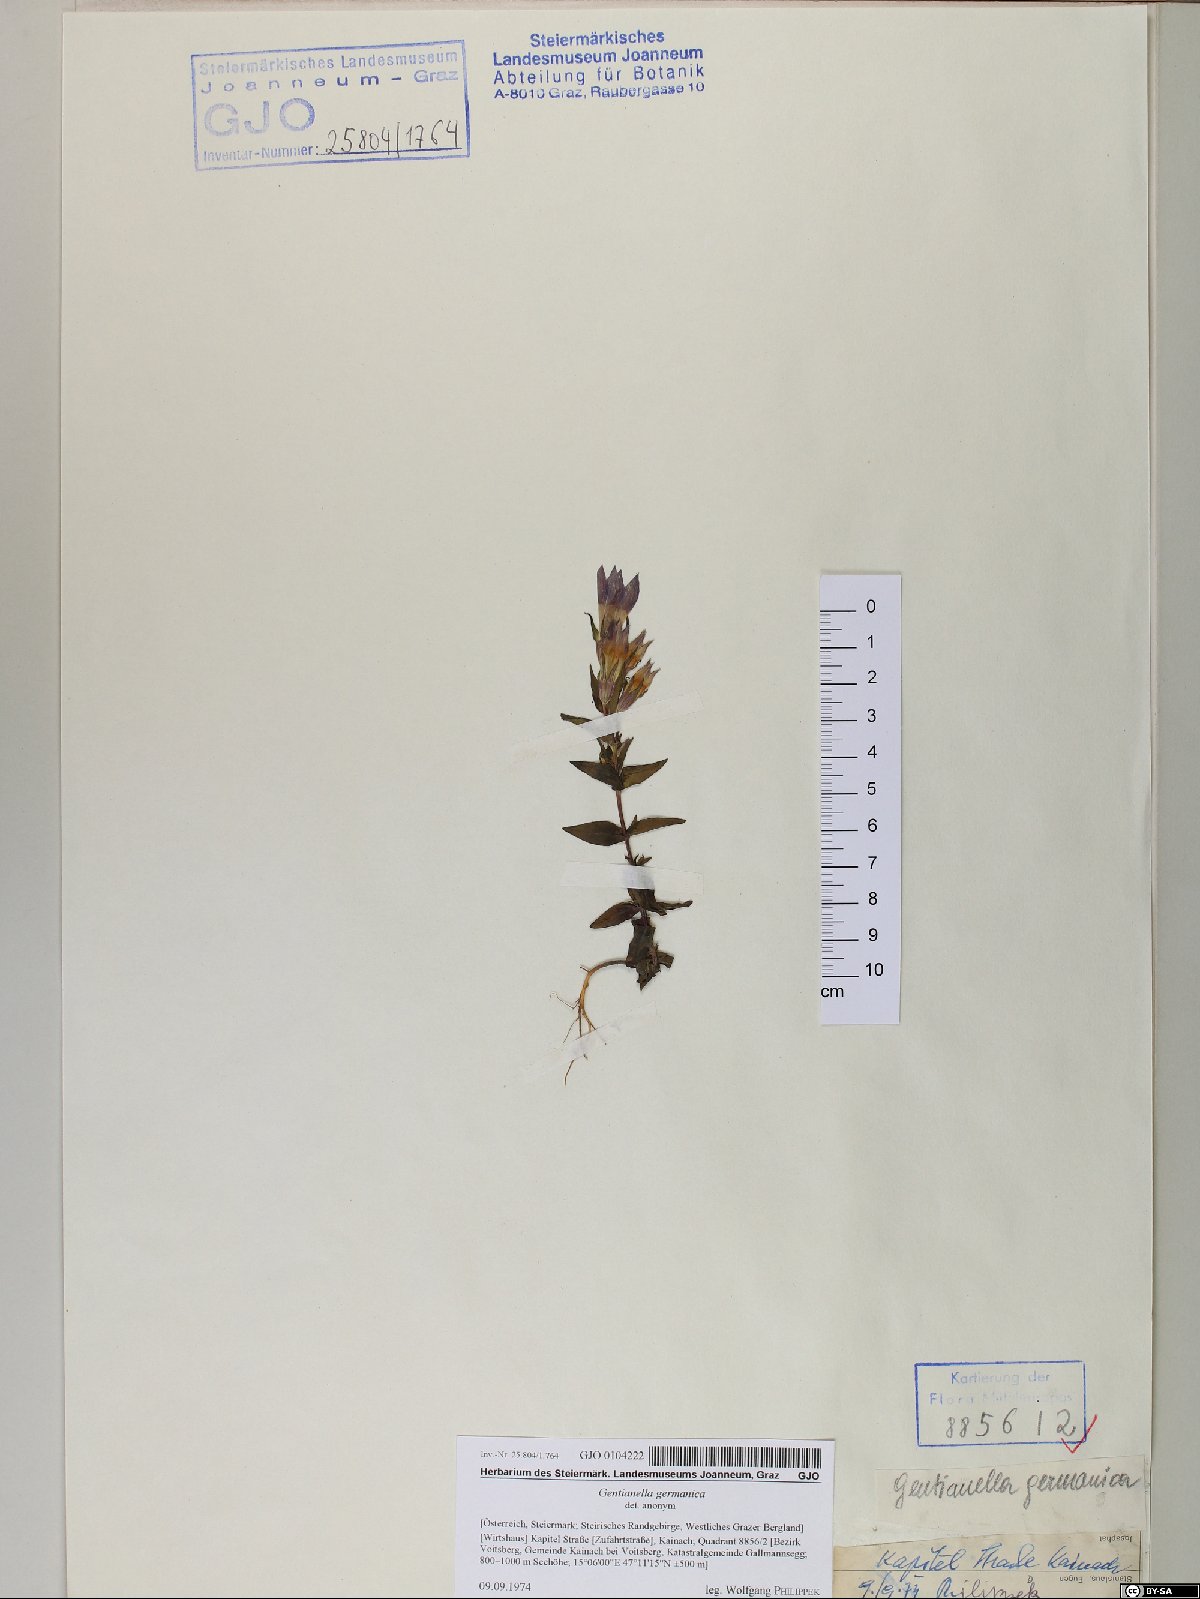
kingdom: Plantae
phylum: Tracheophyta
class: Magnoliopsida
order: Gentianales
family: Gentianaceae
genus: Gentianella
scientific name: Gentianella germanica
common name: Chiltern-gentian
